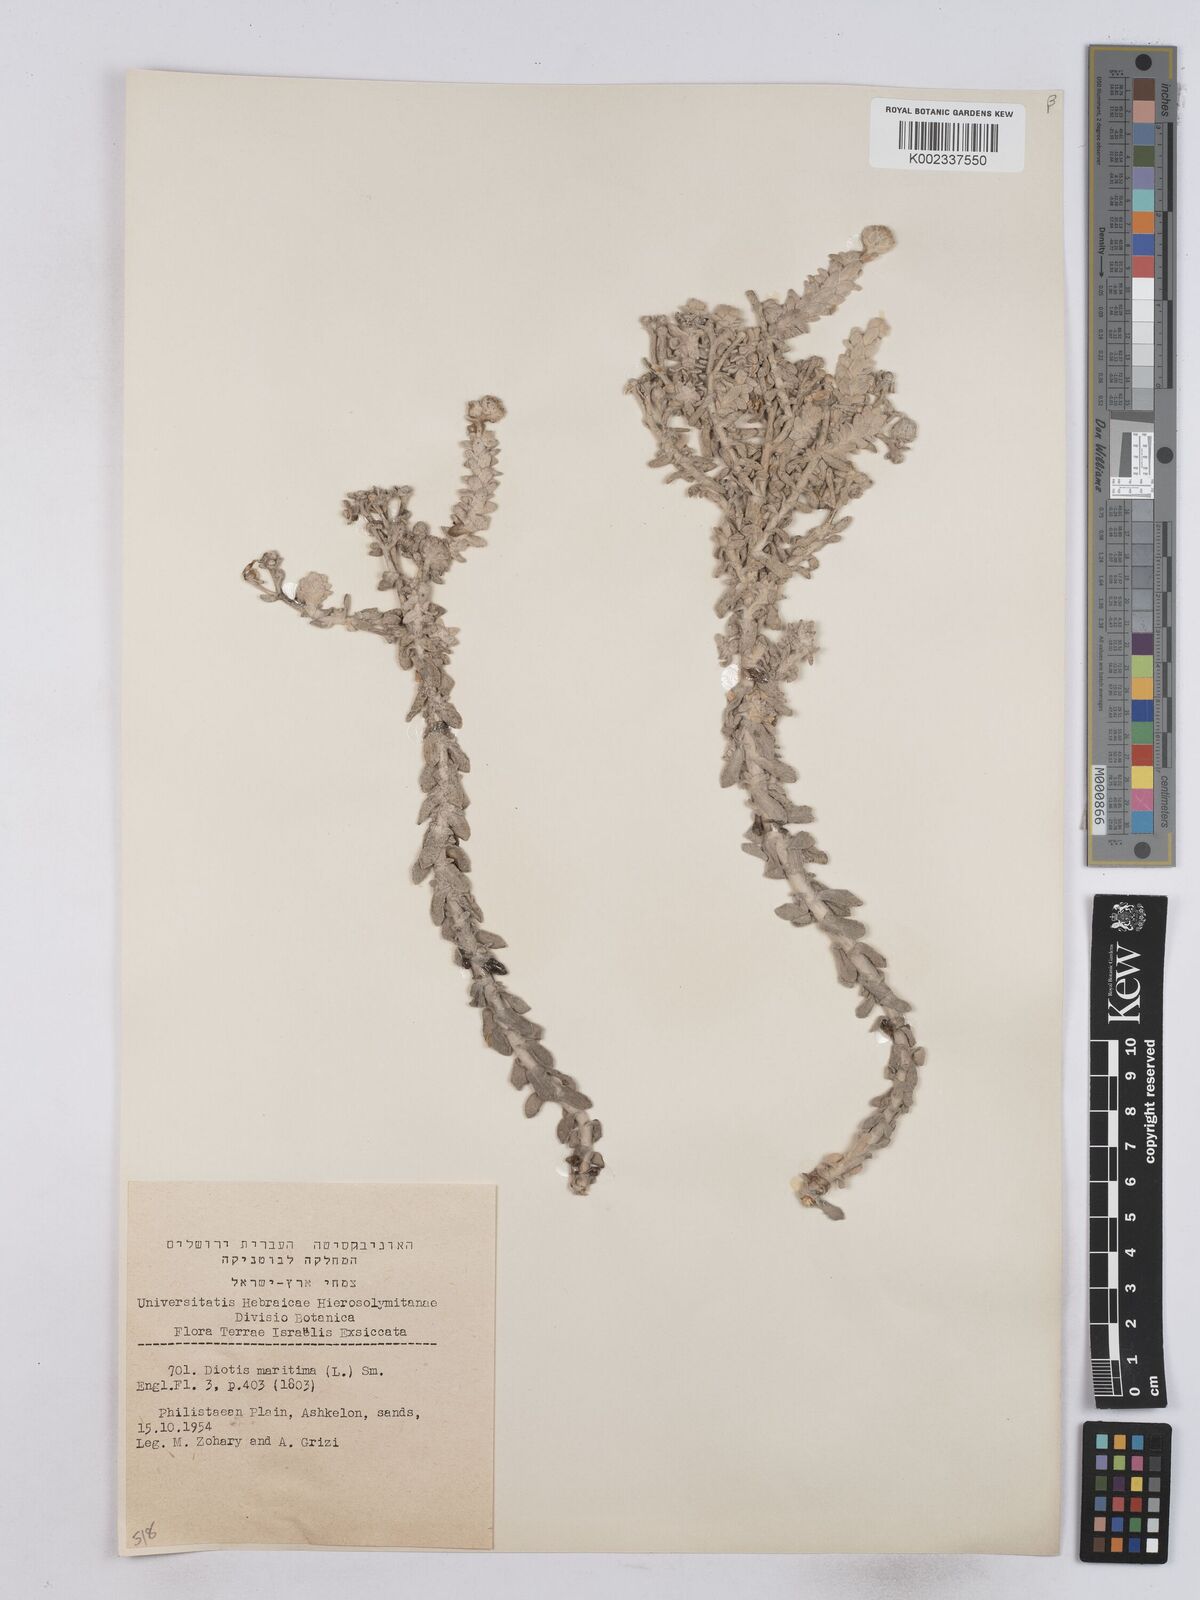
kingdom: Plantae
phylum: Tracheophyta
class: Magnoliopsida
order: Asterales
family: Asteraceae
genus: Achillea
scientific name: Achillea maritima
